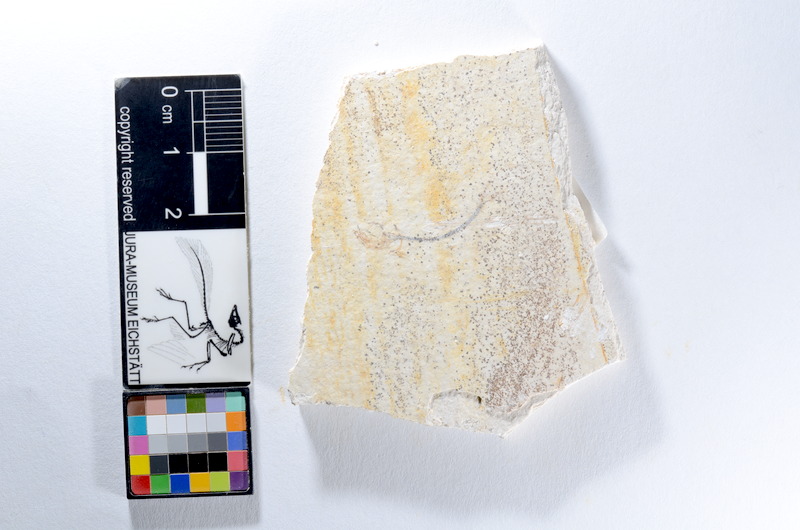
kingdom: Animalia
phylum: Chordata
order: Salmoniformes
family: Orthogonikleithridae
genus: Orthogonikleithrus
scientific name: Orthogonikleithrus hoelli
